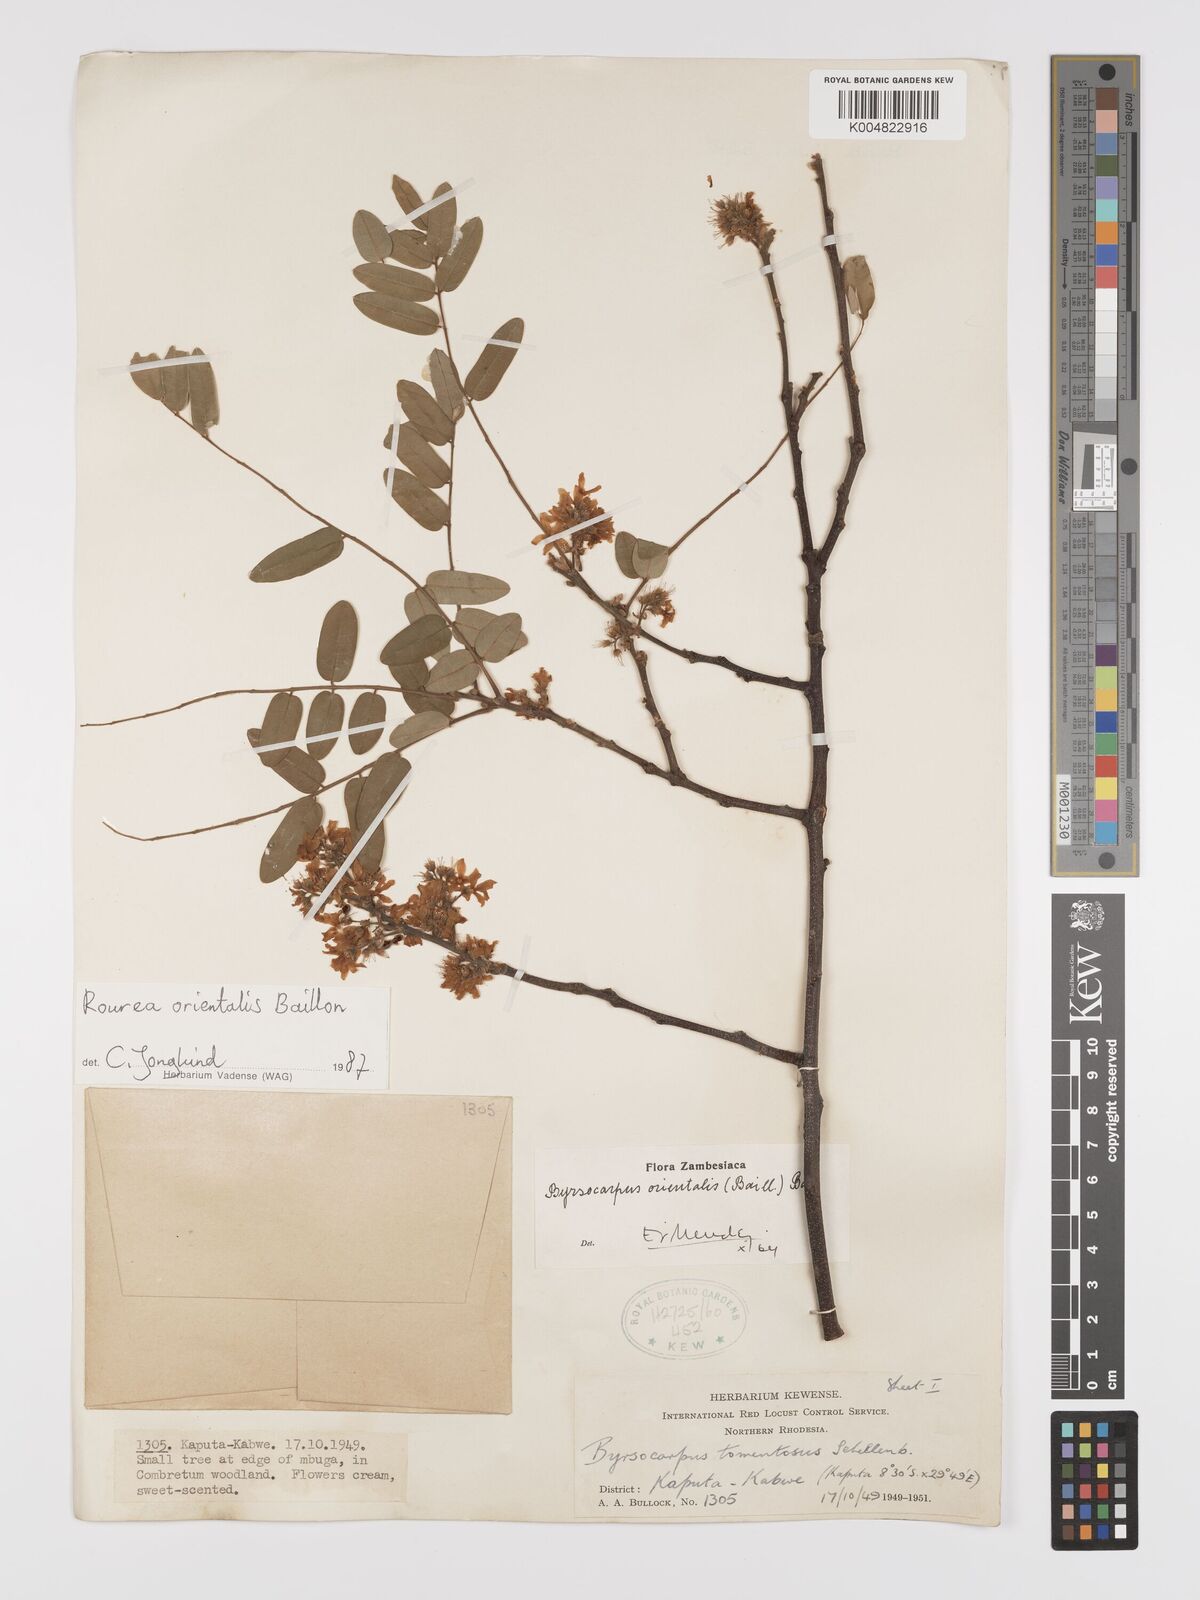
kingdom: Plantae
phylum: Tracheophyta
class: Magnoliopsida
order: Oxalidales
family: Connaraceae
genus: Rourea
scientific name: Rourea orientalis
